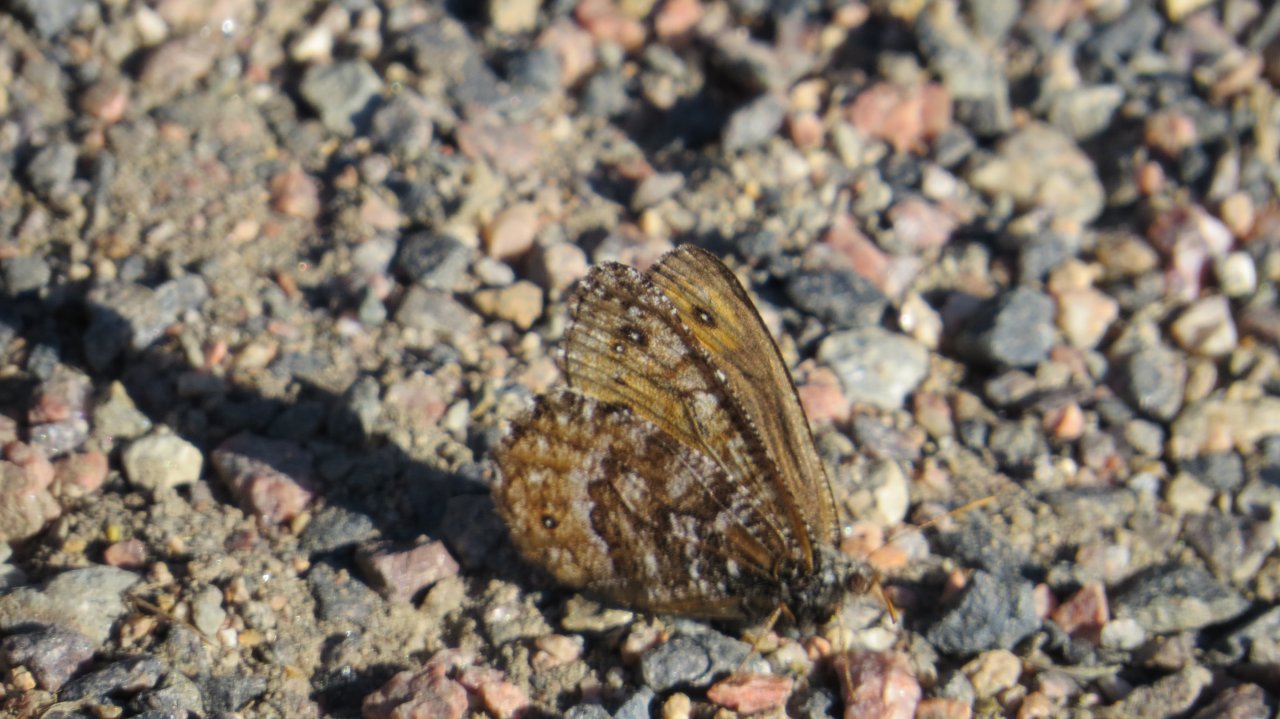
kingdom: Animalia
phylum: Arthropoda
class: Insecta
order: Lepidoptera
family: Nymphalidae
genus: Oeneis
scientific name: Oeneis chryxus
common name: Chryxus Arctic
